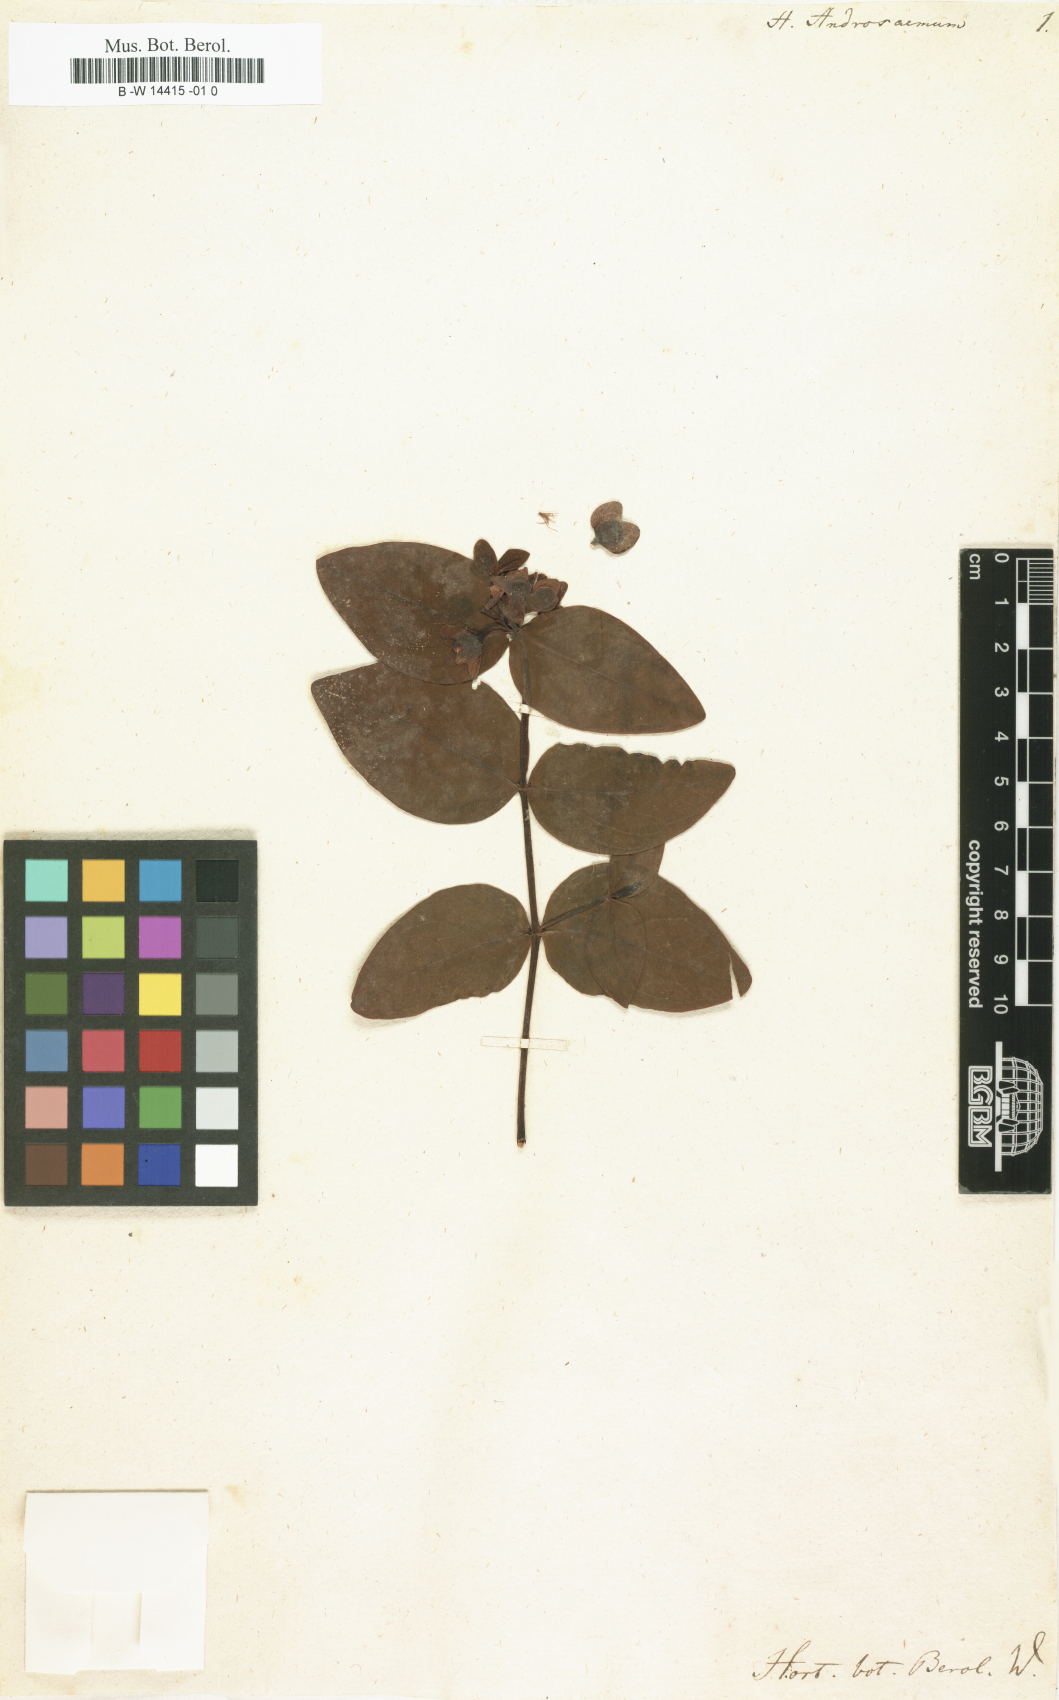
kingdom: Plantae
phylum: Tracheophyta
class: Magnoliopsida
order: Malpighiales
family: Hypericaceae
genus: Hypericum
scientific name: Hypericum androsaemum
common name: Sweet-amber
